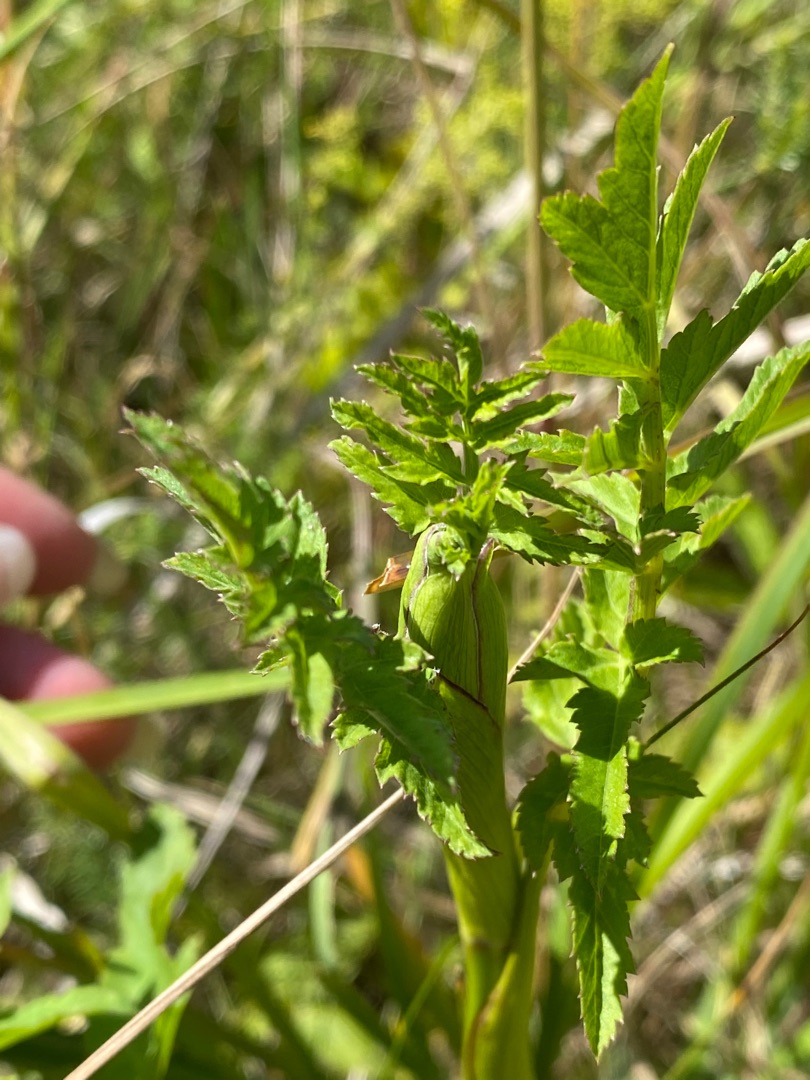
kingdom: Plantae
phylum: Tracheophyta
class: Magnoliopsida
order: Apiales
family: Apiaceae
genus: Pastinaca
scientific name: Pastinaca sativa
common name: Pastinak
